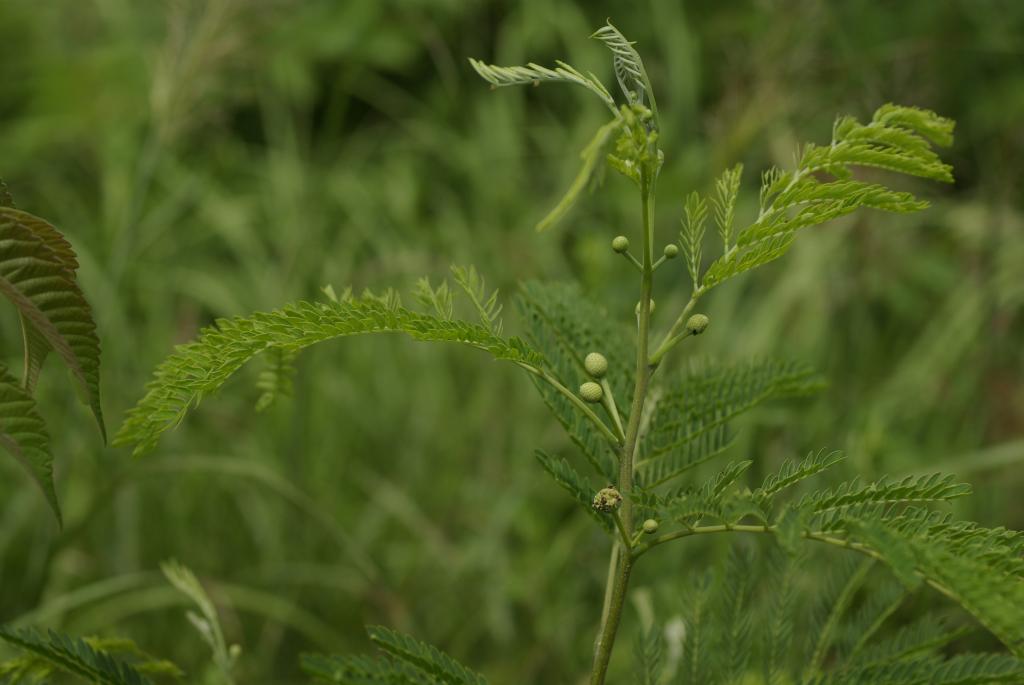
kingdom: Plantae
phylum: Tracheophyta
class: Magnoliopsida
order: Fabales
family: Fabaceae
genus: Leucaena
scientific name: Leucaena leucocephala
